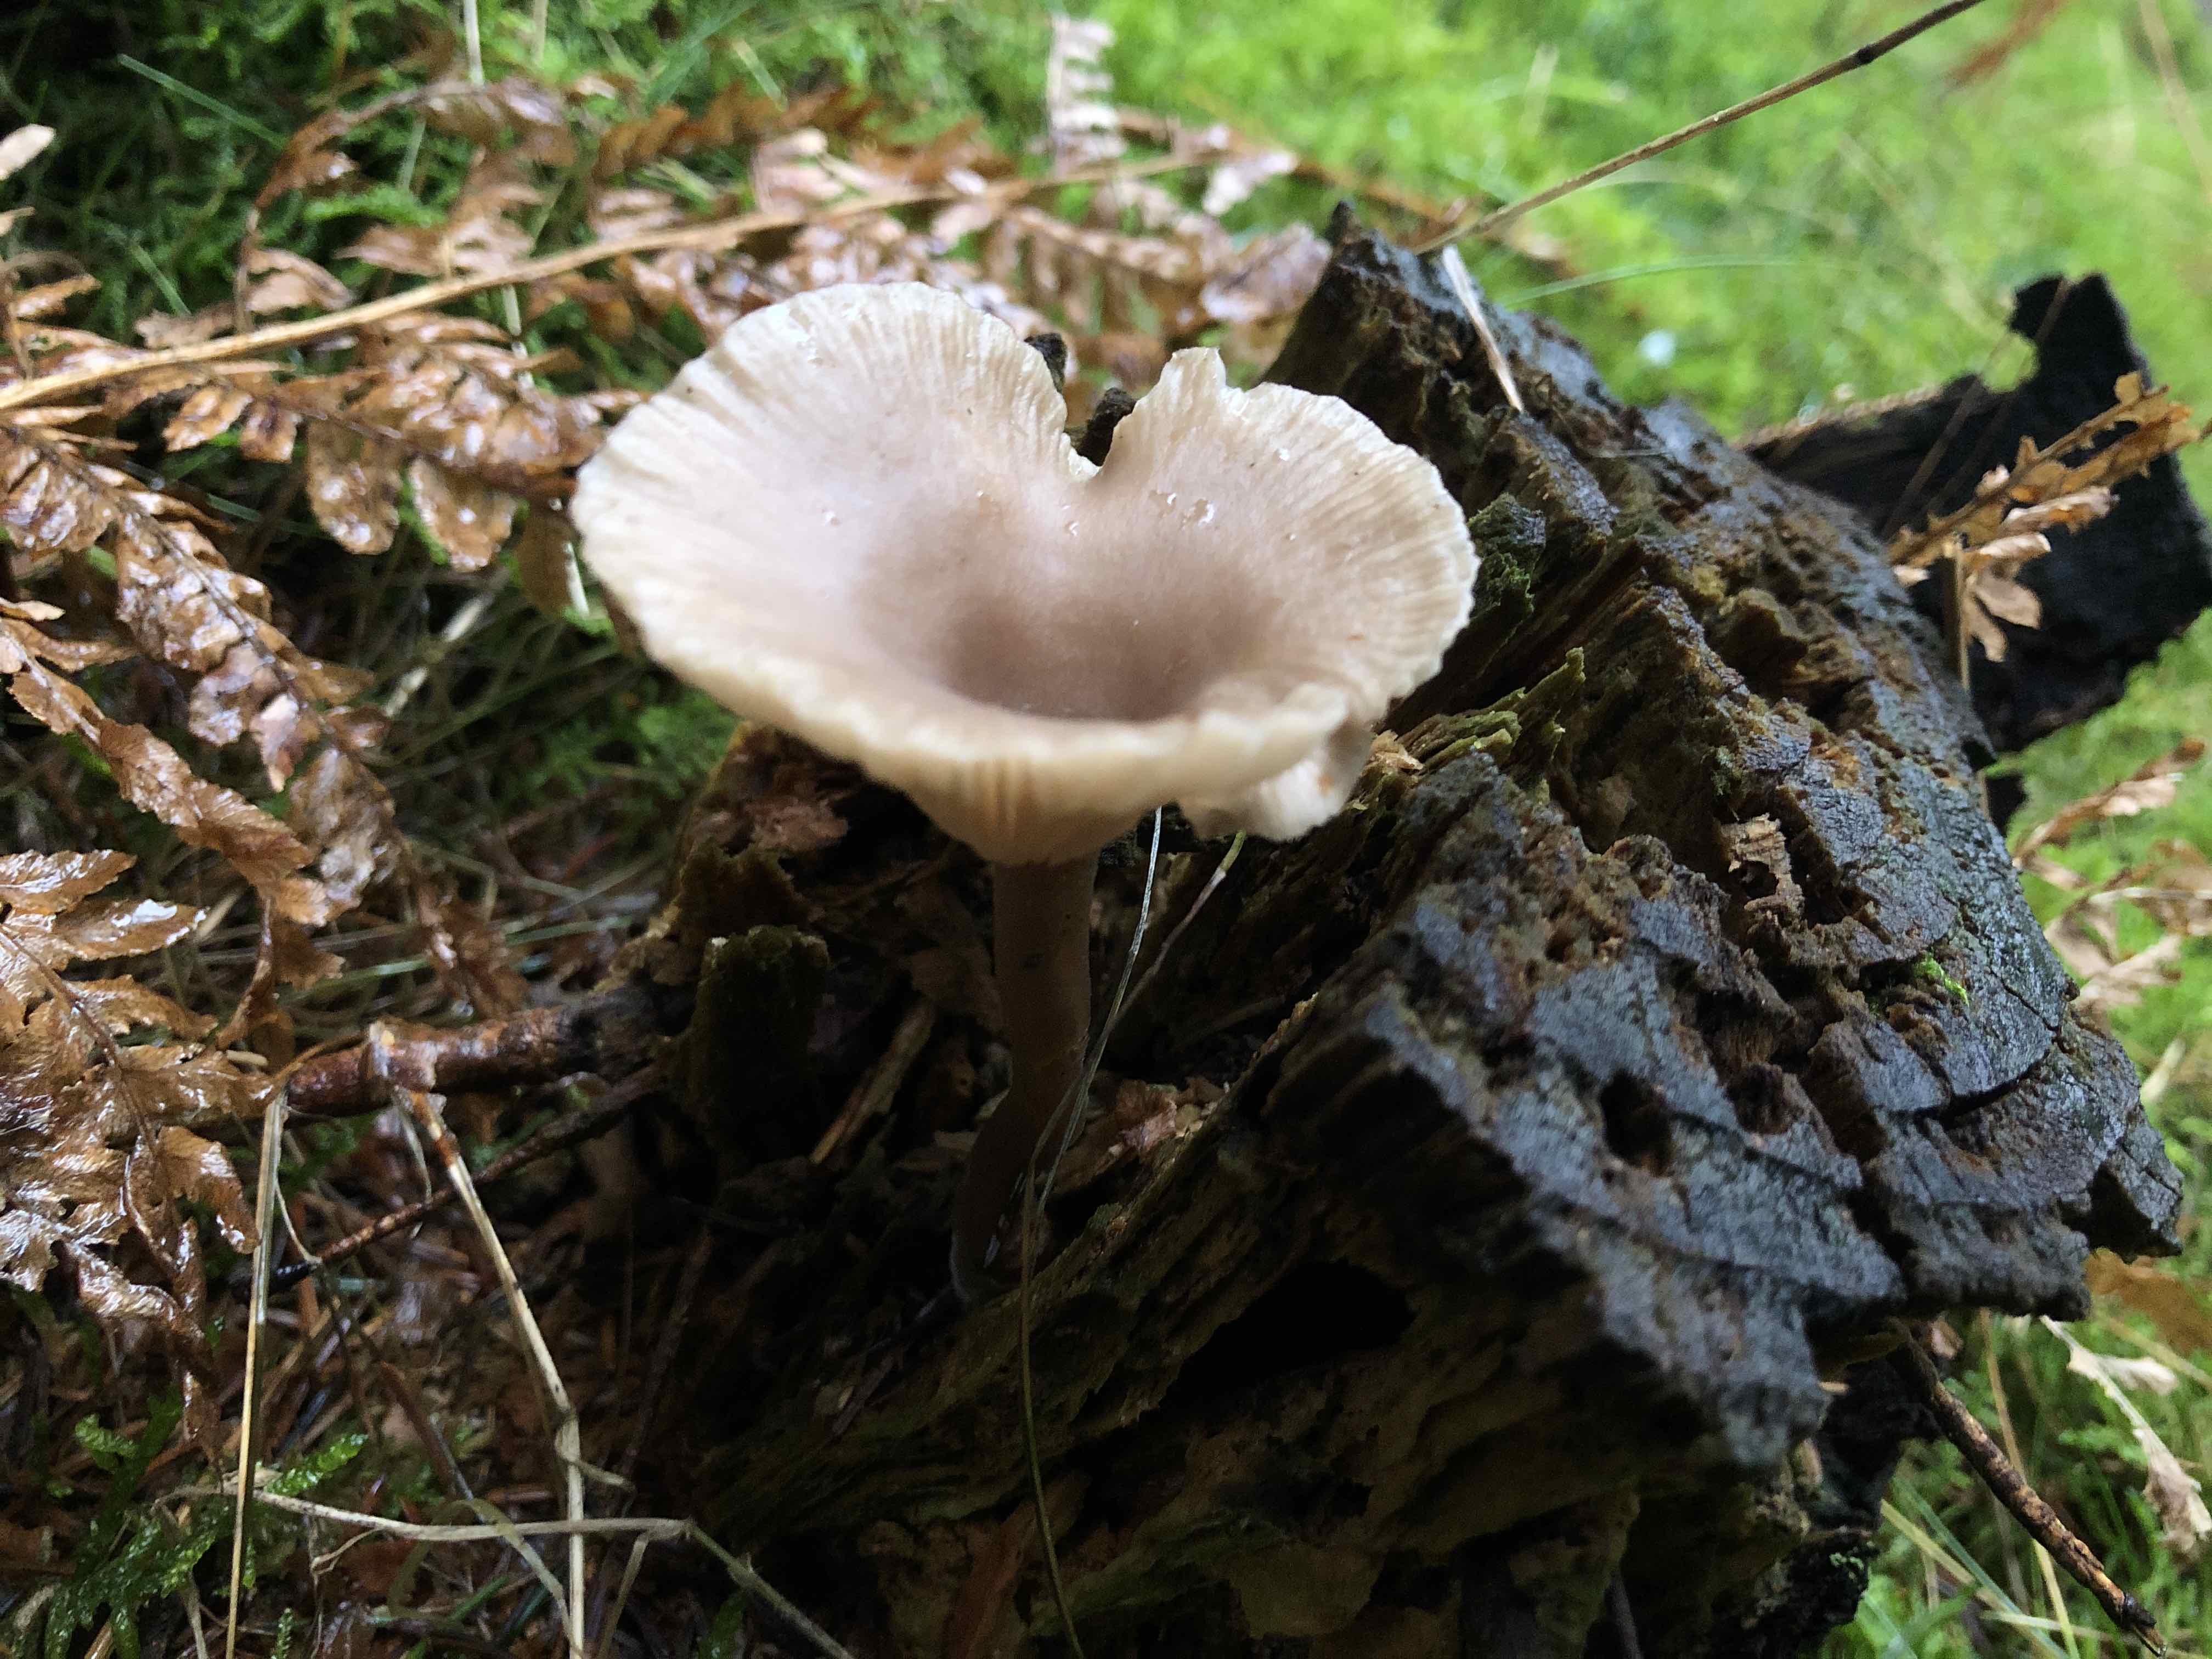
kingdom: Fungi
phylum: Basidiomycota
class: Agaricomycetes
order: Agaricales
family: Pseudoclitocybaceae
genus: Pseudoclitocybe
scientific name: Pseudoclitocybe cyathiformis
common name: almindelig bægertragthat
